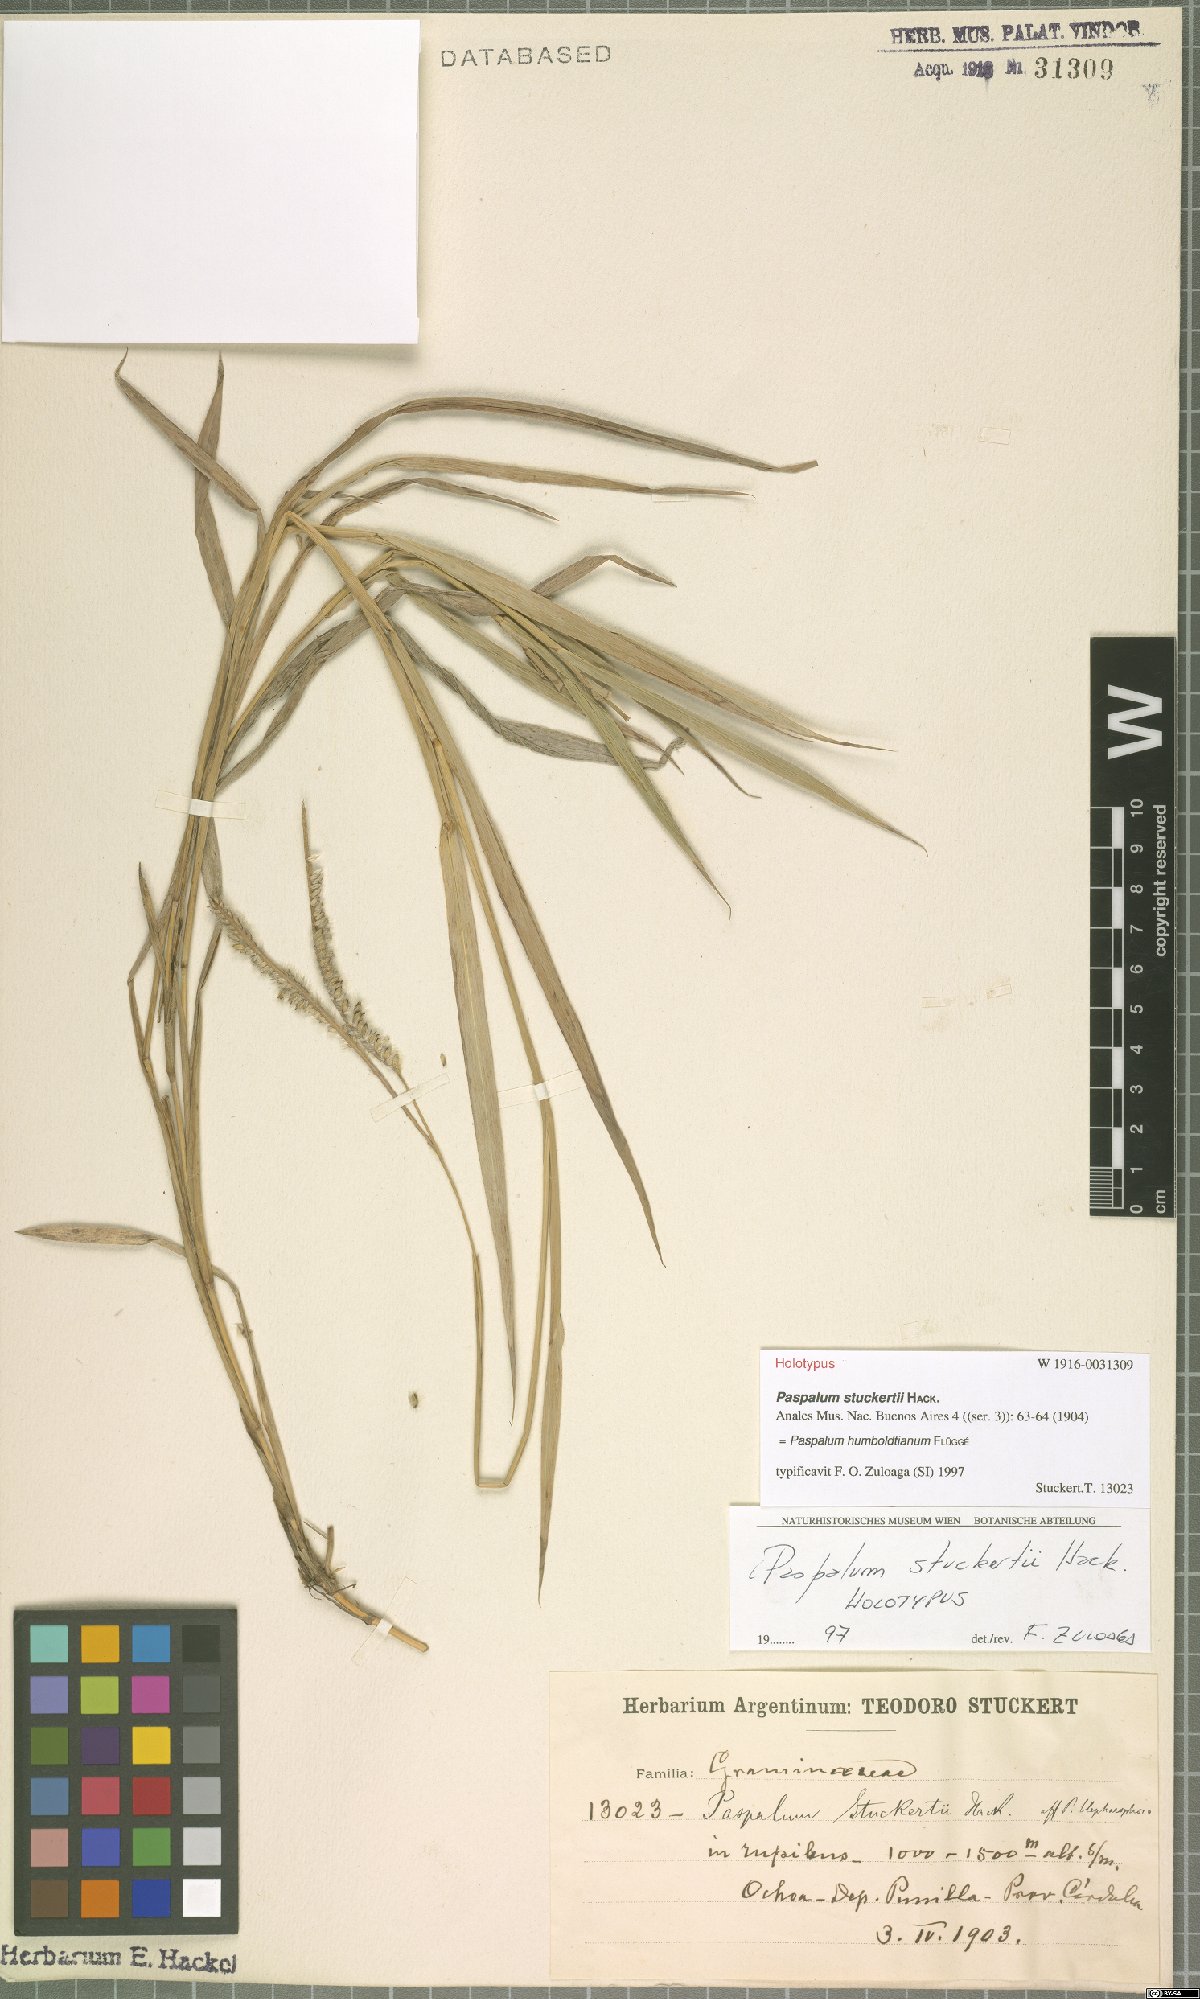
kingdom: Plantae
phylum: Tracheophyta
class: Liliopsida
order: Poales
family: Poaceae
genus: Paspalum
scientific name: Paspalum humboldtianum
